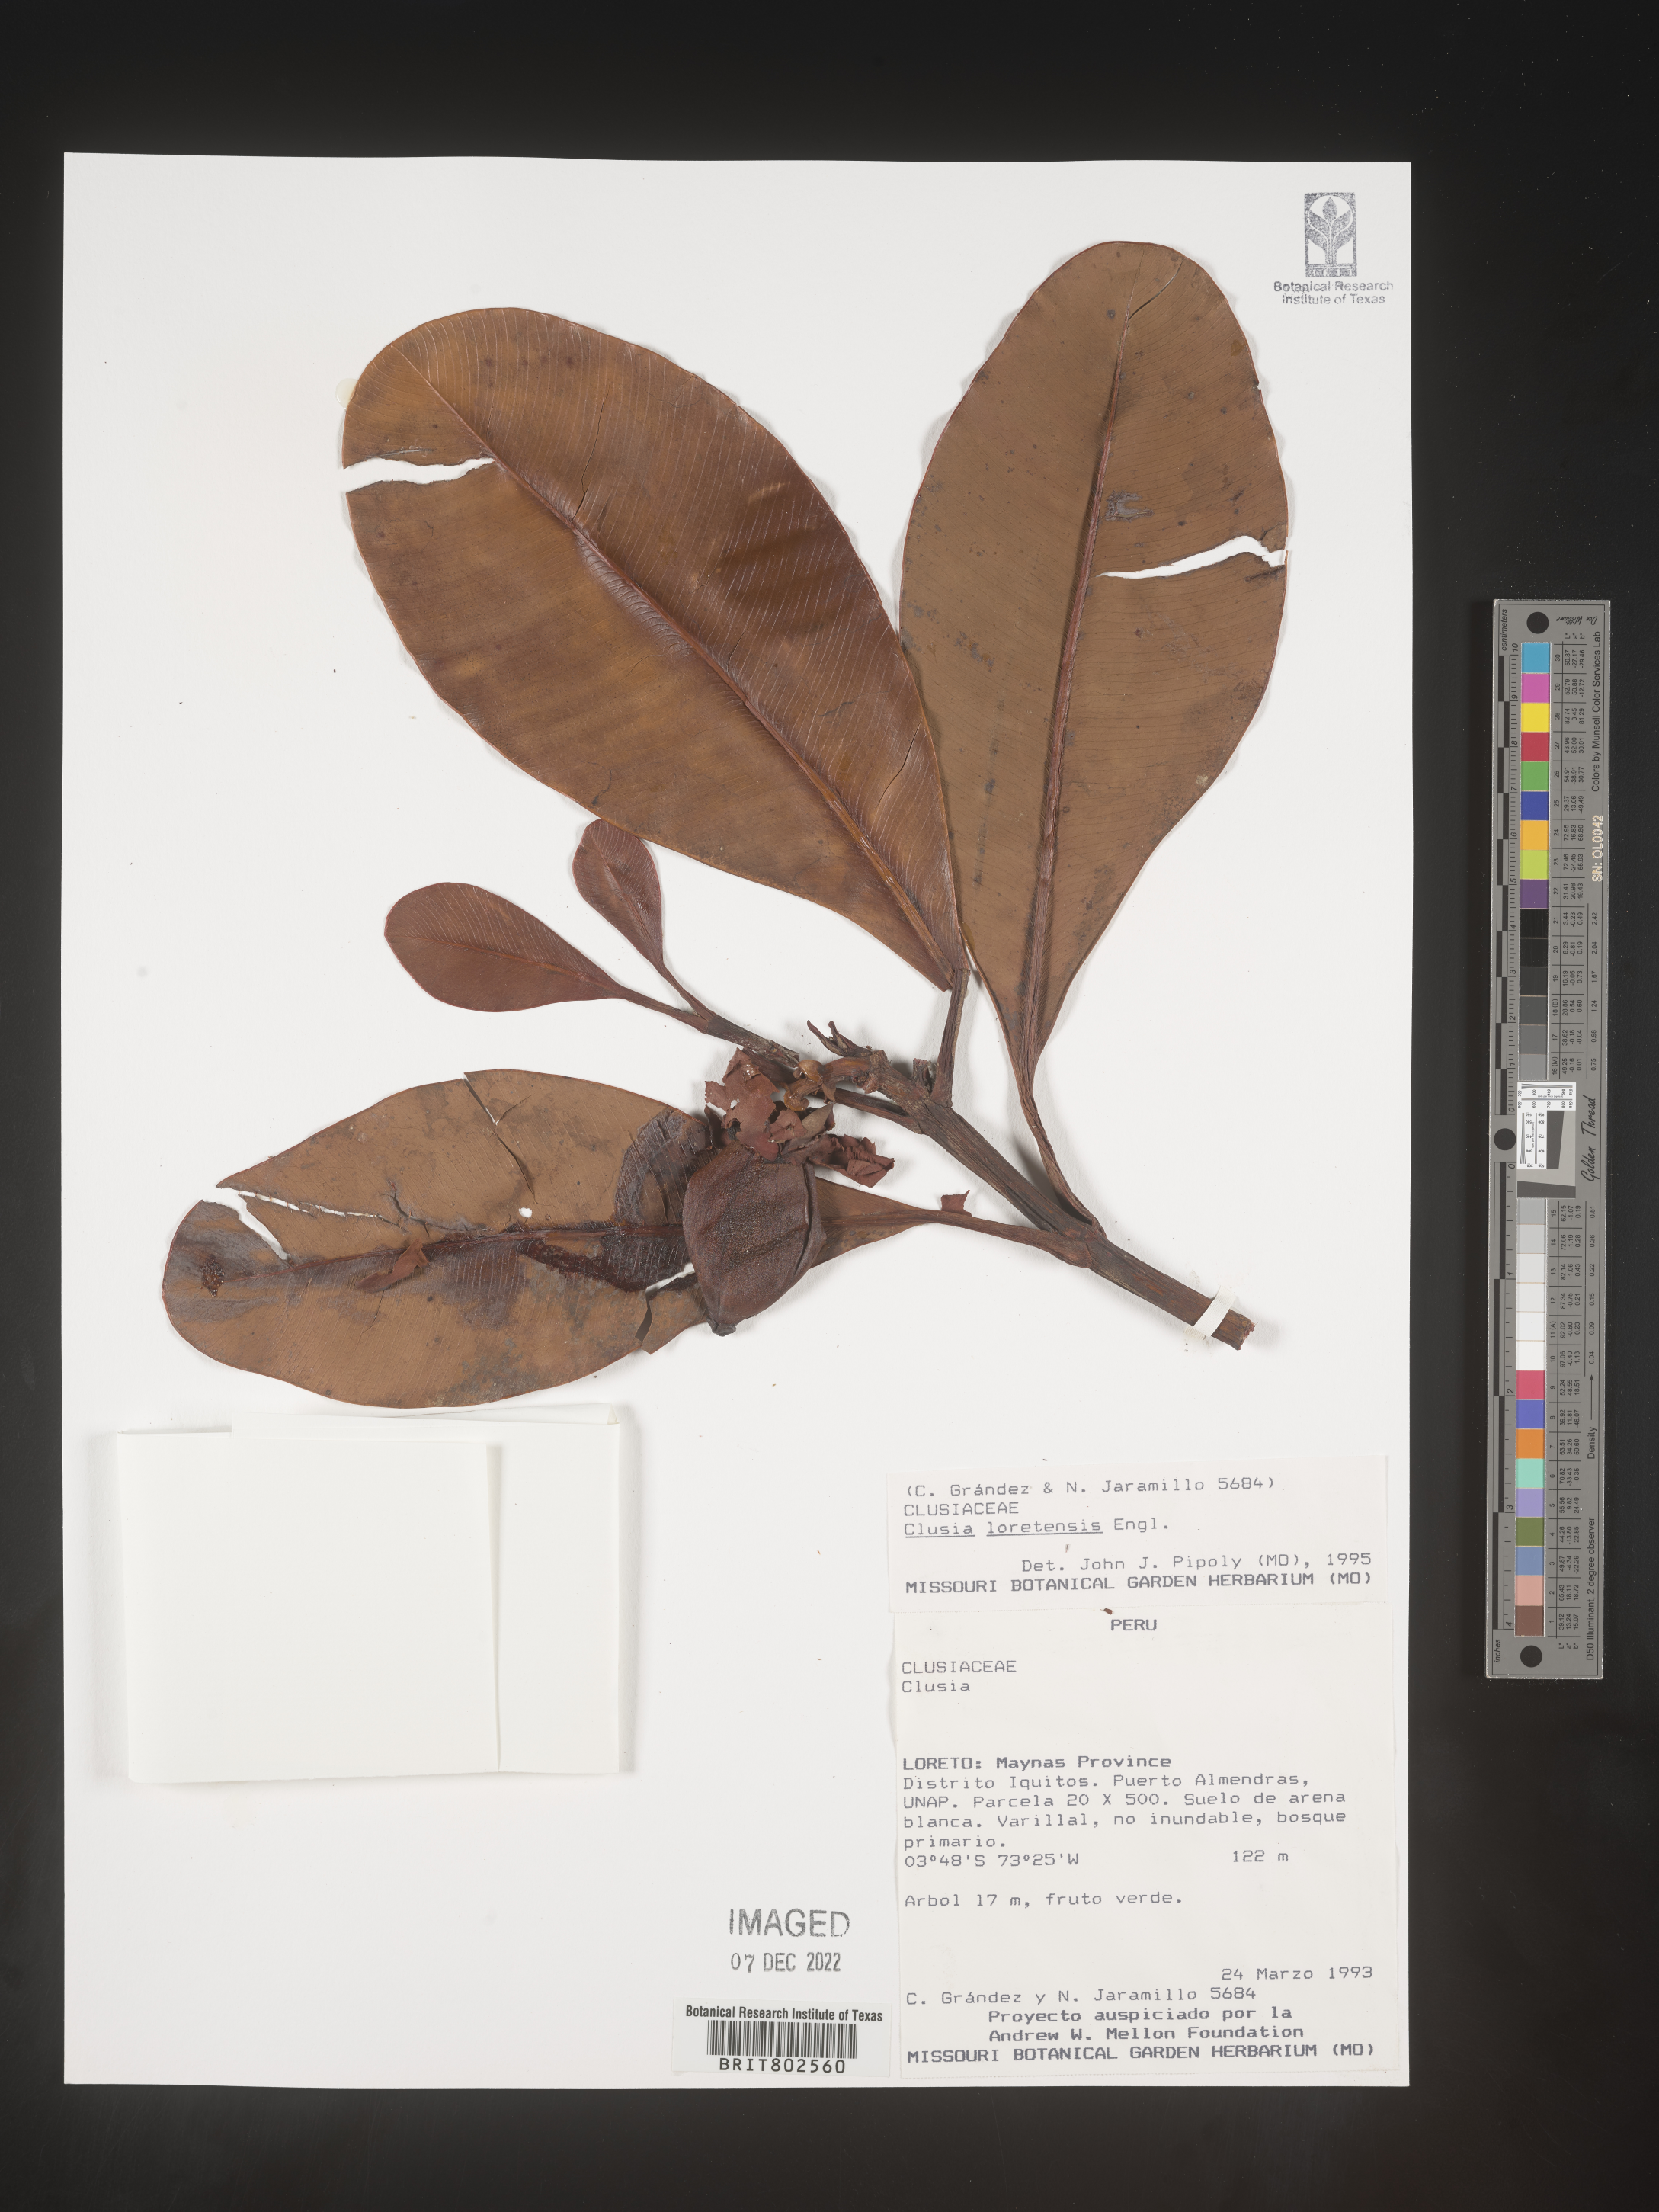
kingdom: Plantae
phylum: Tracheophyta
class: Magnoliopsida
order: Malpighiales
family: Clusiaceae
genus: Clusia
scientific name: Clusia loretensis
